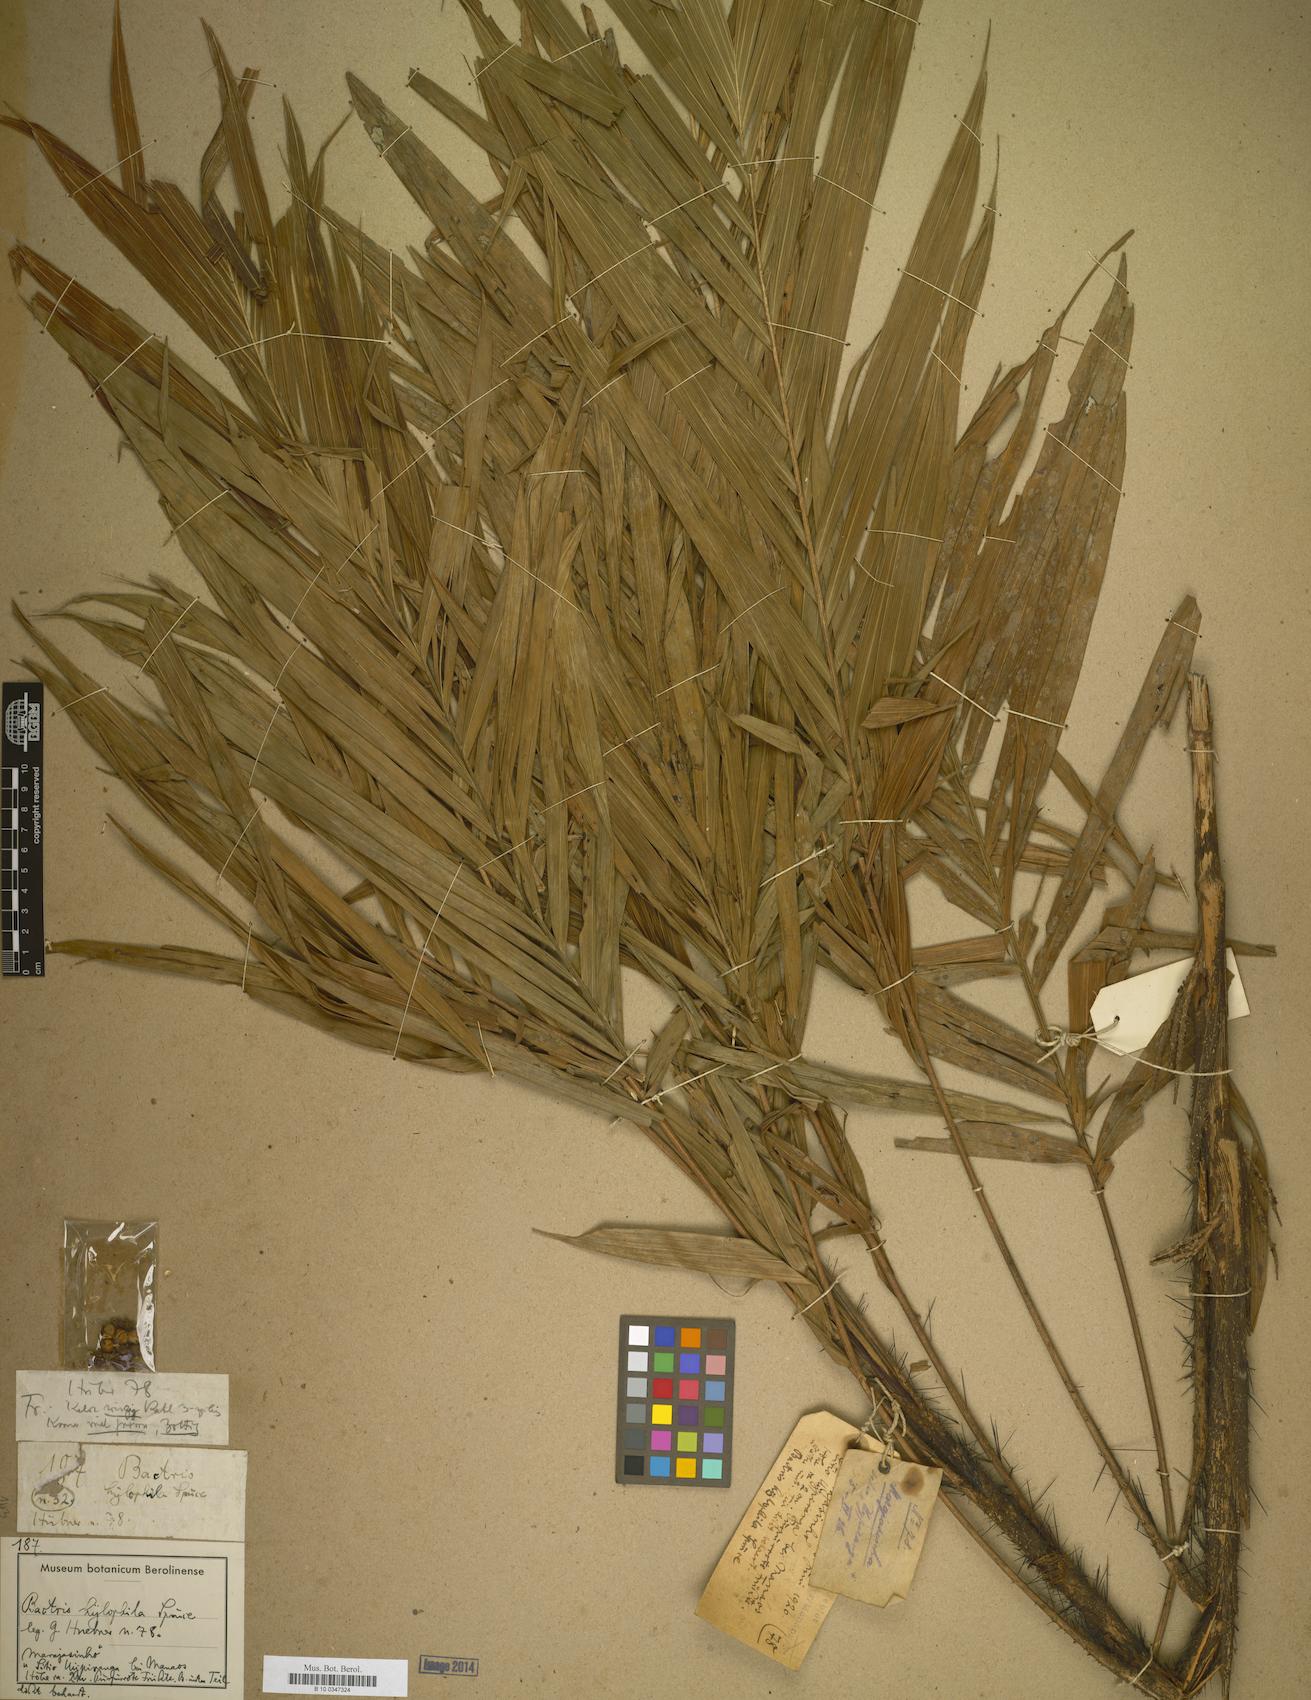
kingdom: Plantae
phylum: Tracheophyta
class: Liliopsida
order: Arecales
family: Arecaceae
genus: Bactris
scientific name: Bactris
